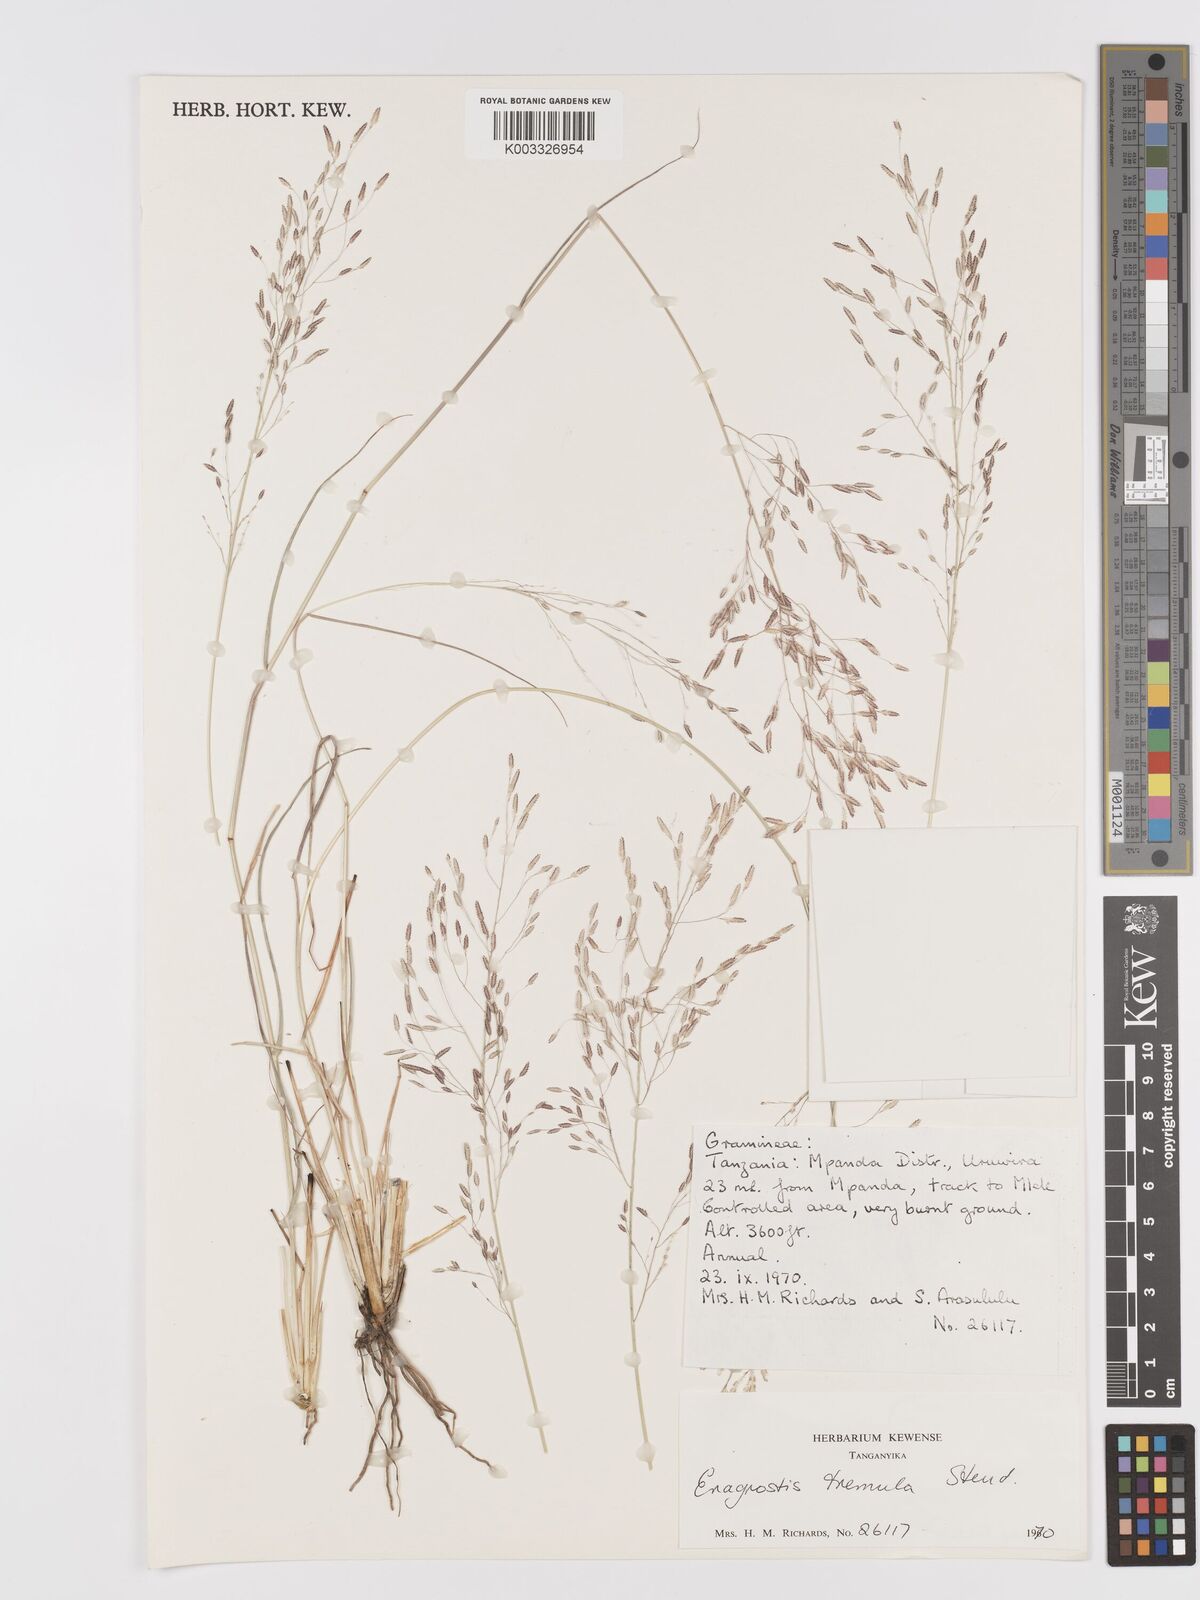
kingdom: Plantae
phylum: Tracheophyta
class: Liliopsida
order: Poales
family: Poaceae
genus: Eragrostis
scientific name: Eragrostis tremula
